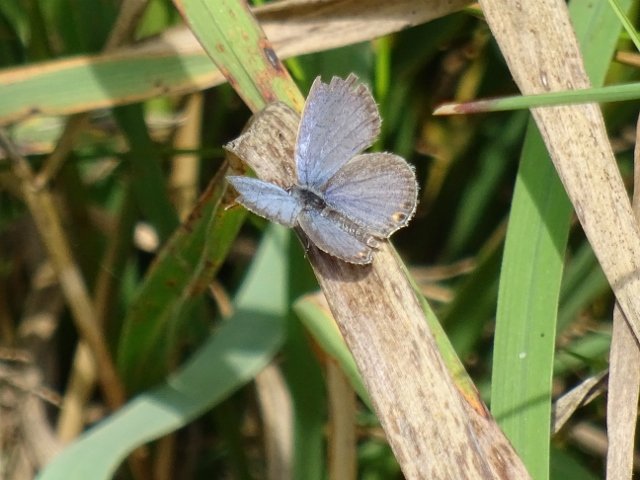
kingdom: Animalia
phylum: Arthropoda
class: Insecta
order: Lepidoptera
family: Lycaenidae
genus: Elkalyce
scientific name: Elkalyce comyntas
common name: Eastern Tailed-Blue
